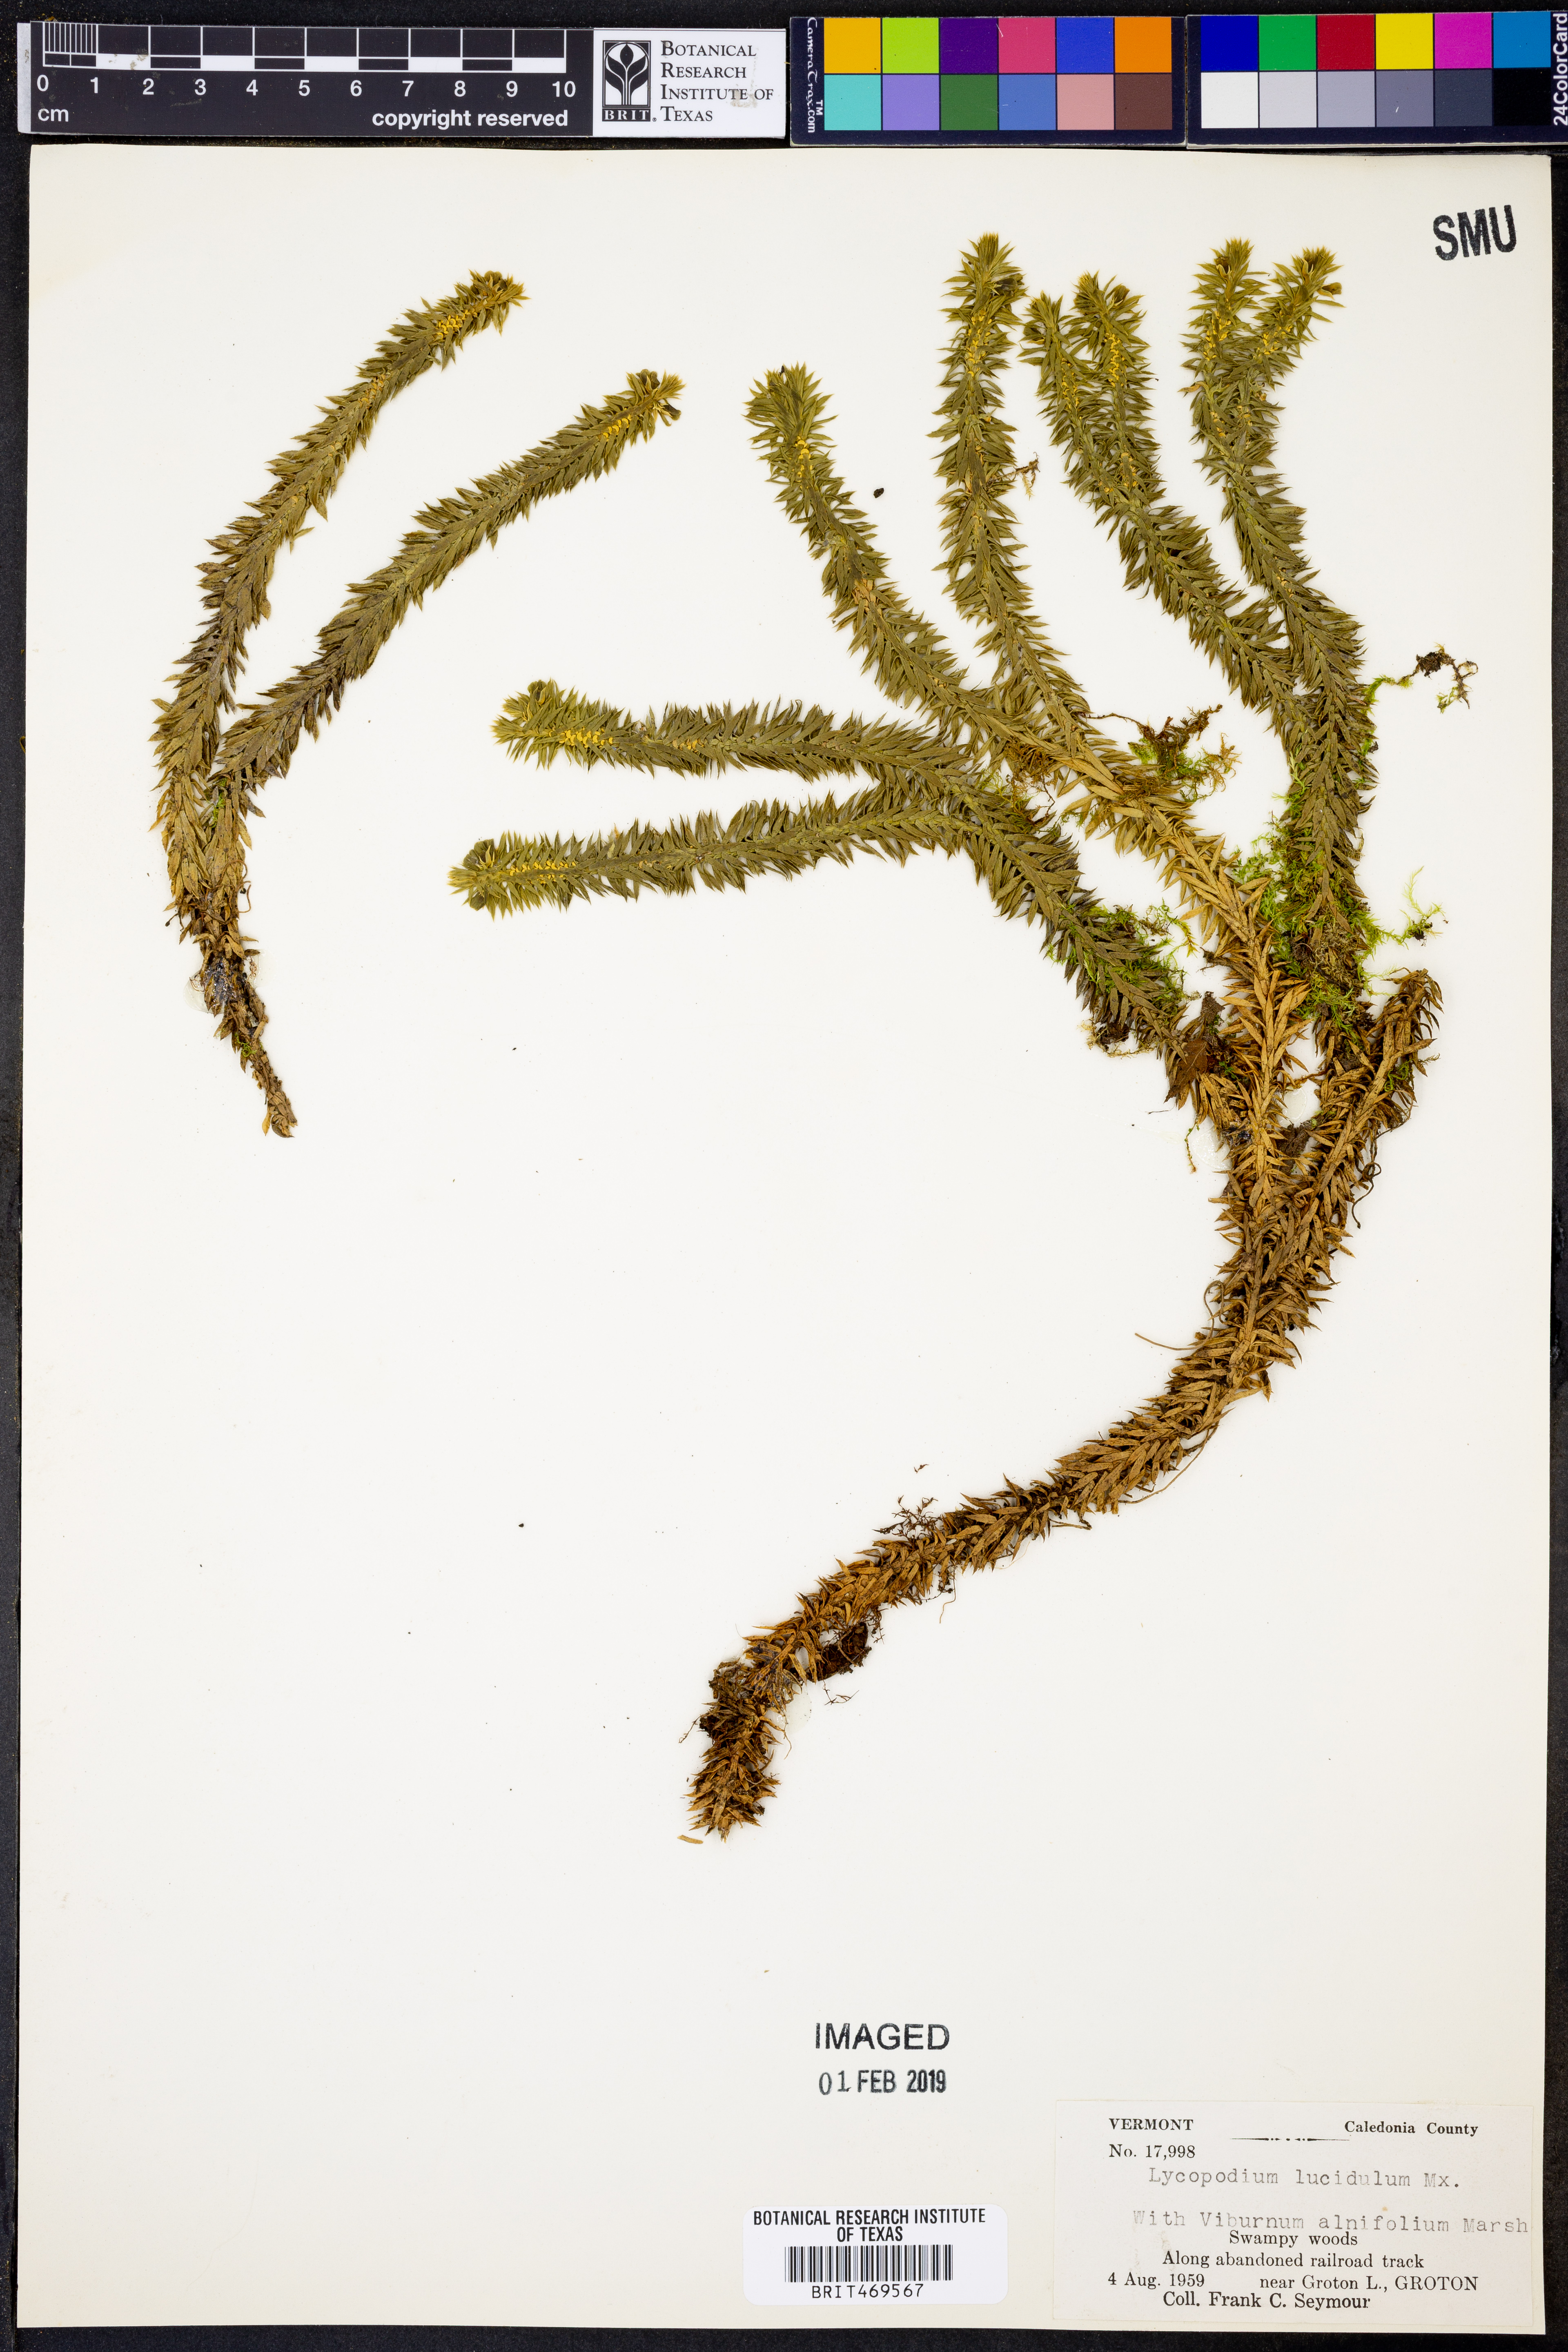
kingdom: Plantae
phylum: Tracheophyta
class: Lycopodiopsida
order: Lycopodiales
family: Lycopodiaceae
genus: Huperzia
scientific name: Huperzia lucidula
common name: Shining clubmoss
